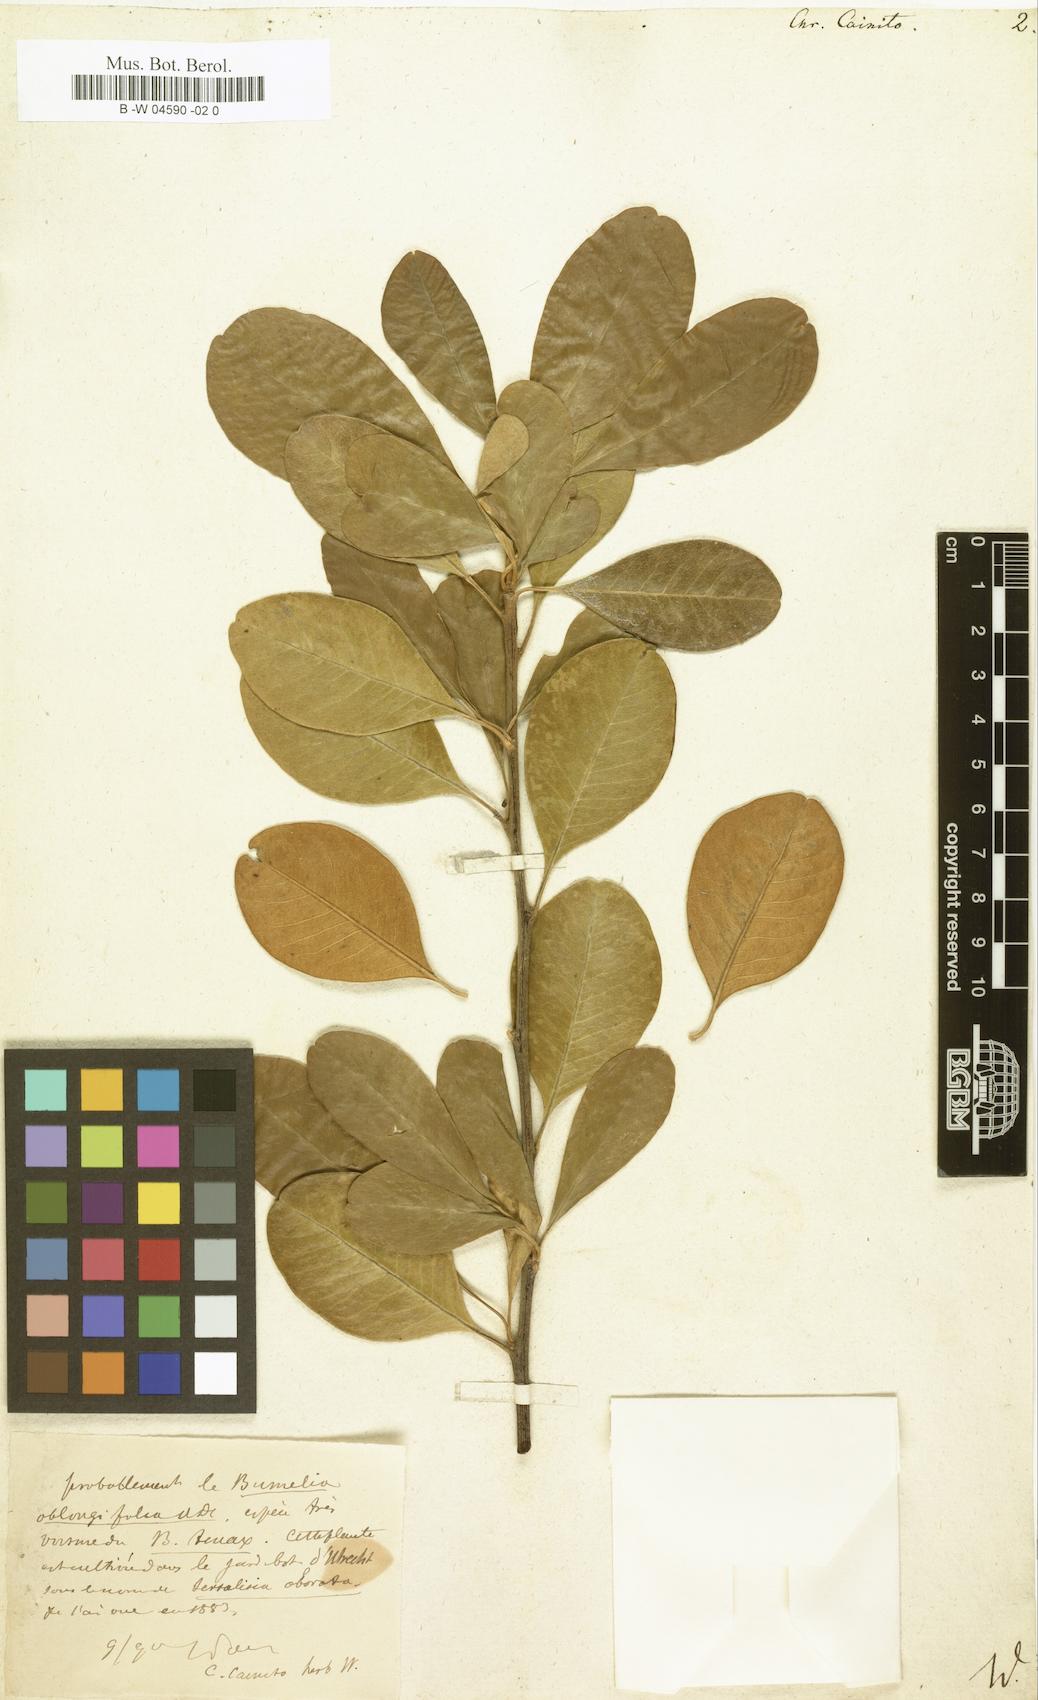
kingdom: Plantae
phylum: Tracheophyta
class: Magnoliopsida
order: Ericales
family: Sapotaceae
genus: Chrysophyllum
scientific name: Chrysophyllum cainito
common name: Star-apple
